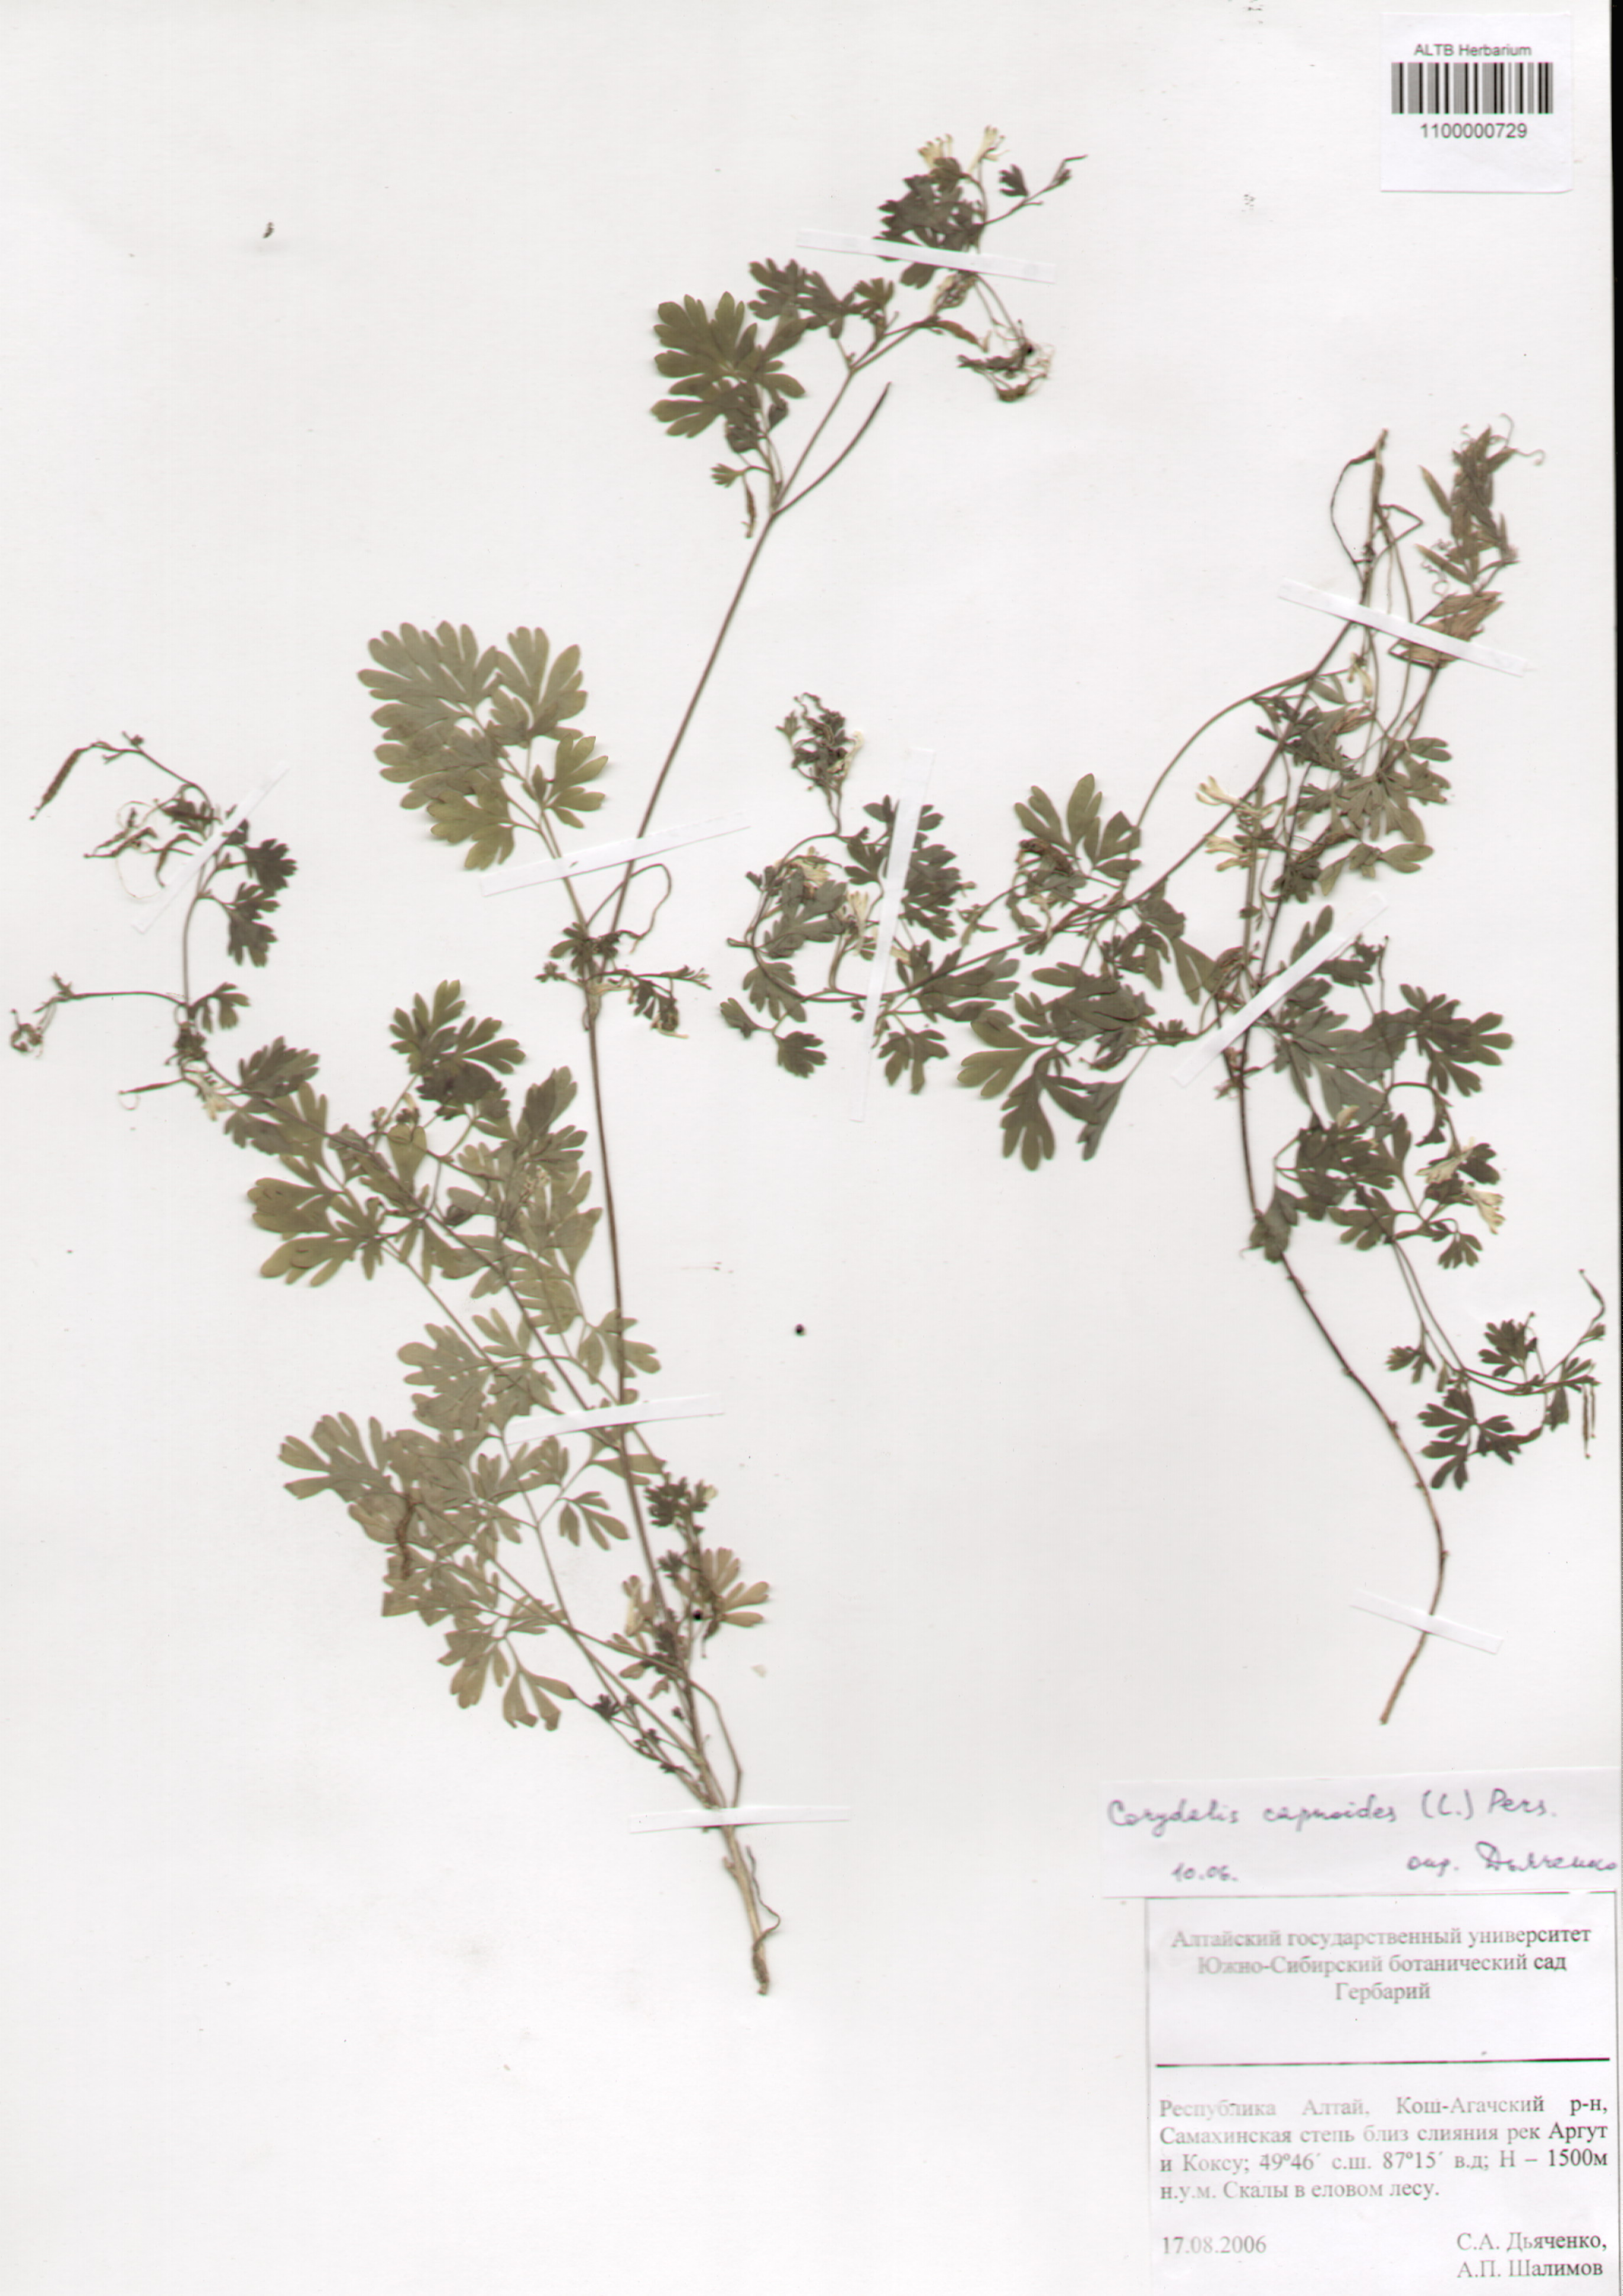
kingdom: Plantae
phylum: Tracheophyta
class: Magnoliopsida
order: Ranunculales
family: Papaveraceae
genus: Corydalis
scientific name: Corydalis capnoides
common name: Beaked corydalis
